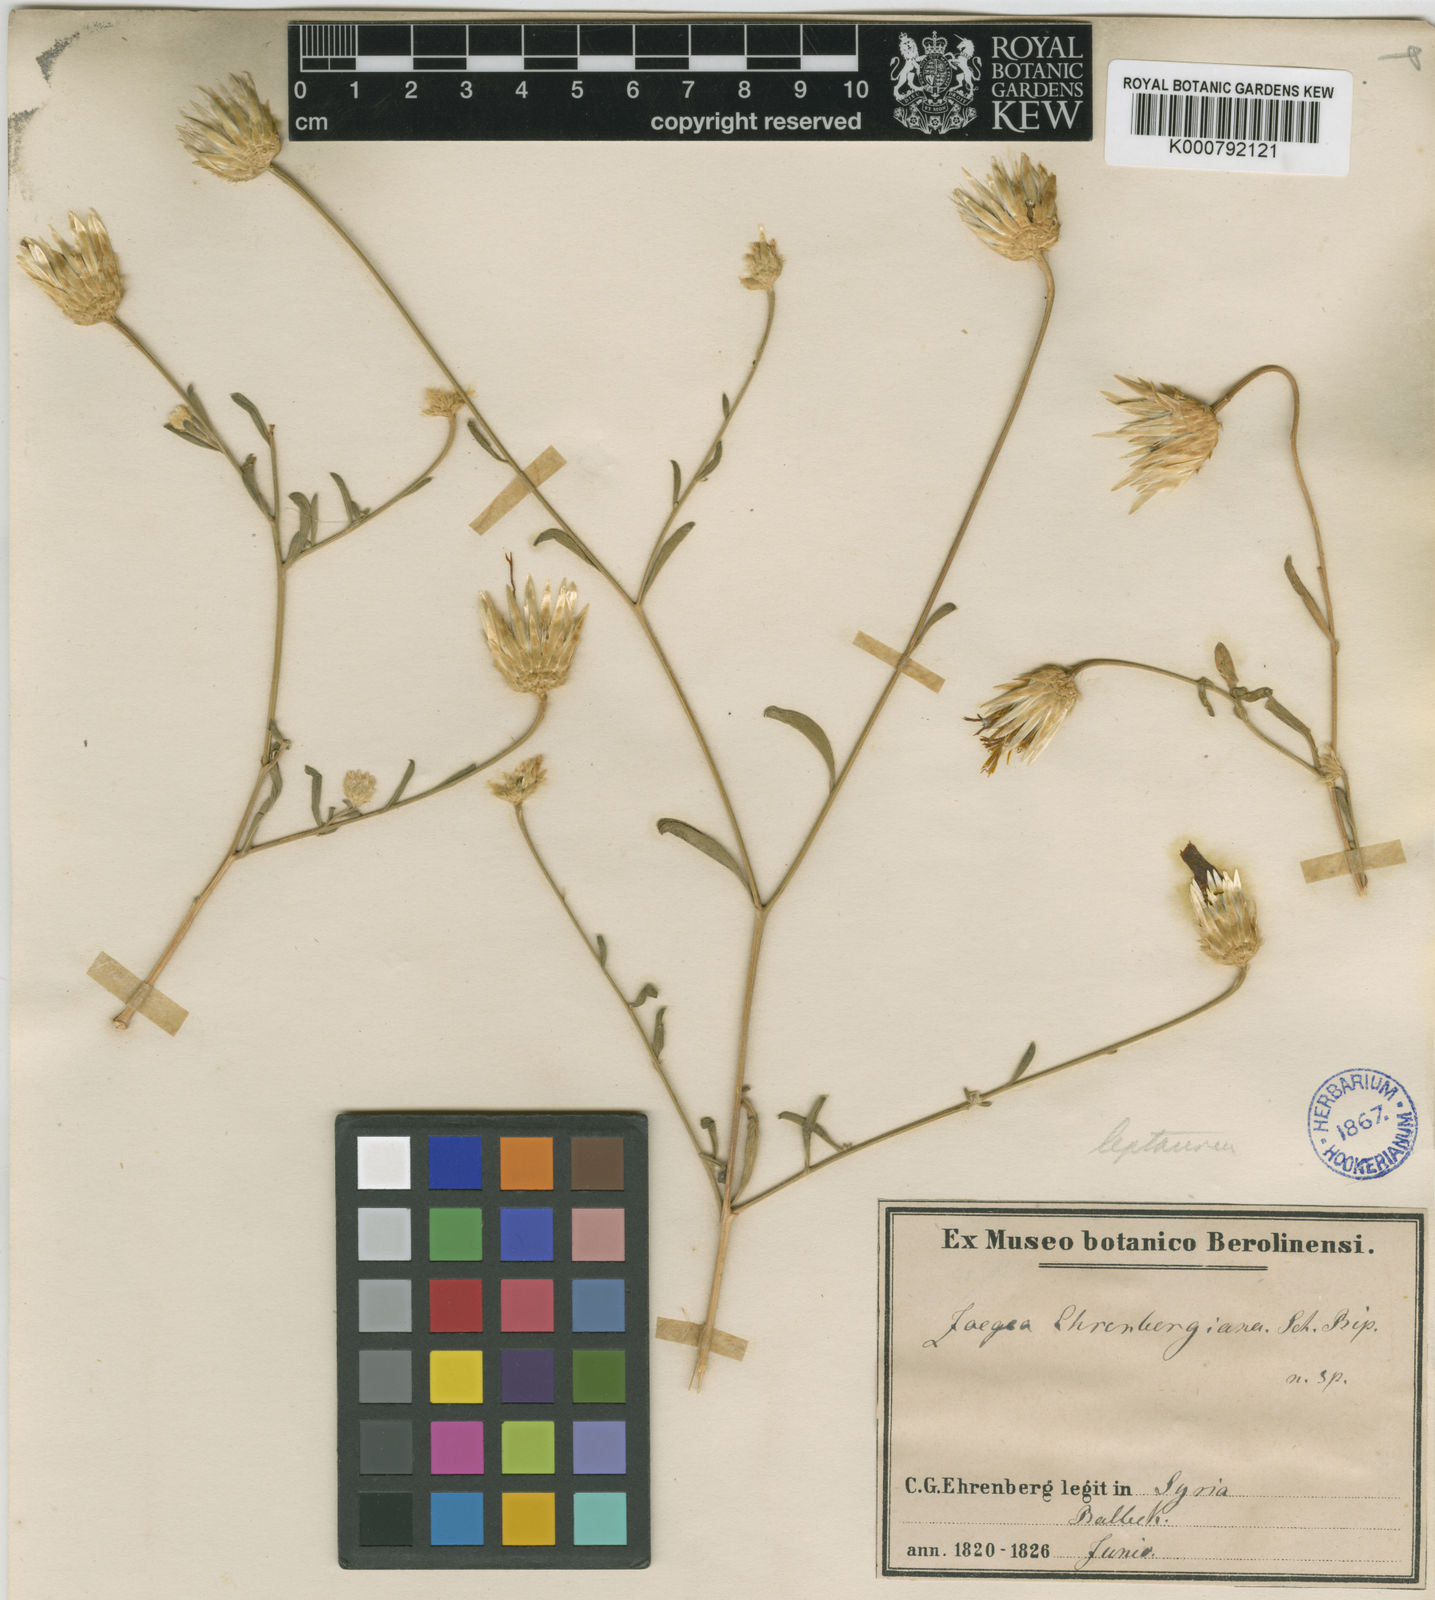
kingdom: Plantae
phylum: Tracheophyta
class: Magnoliopsida
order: Asterales
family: Asteraceae
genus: Zoegea
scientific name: Zoegea leptaurea
